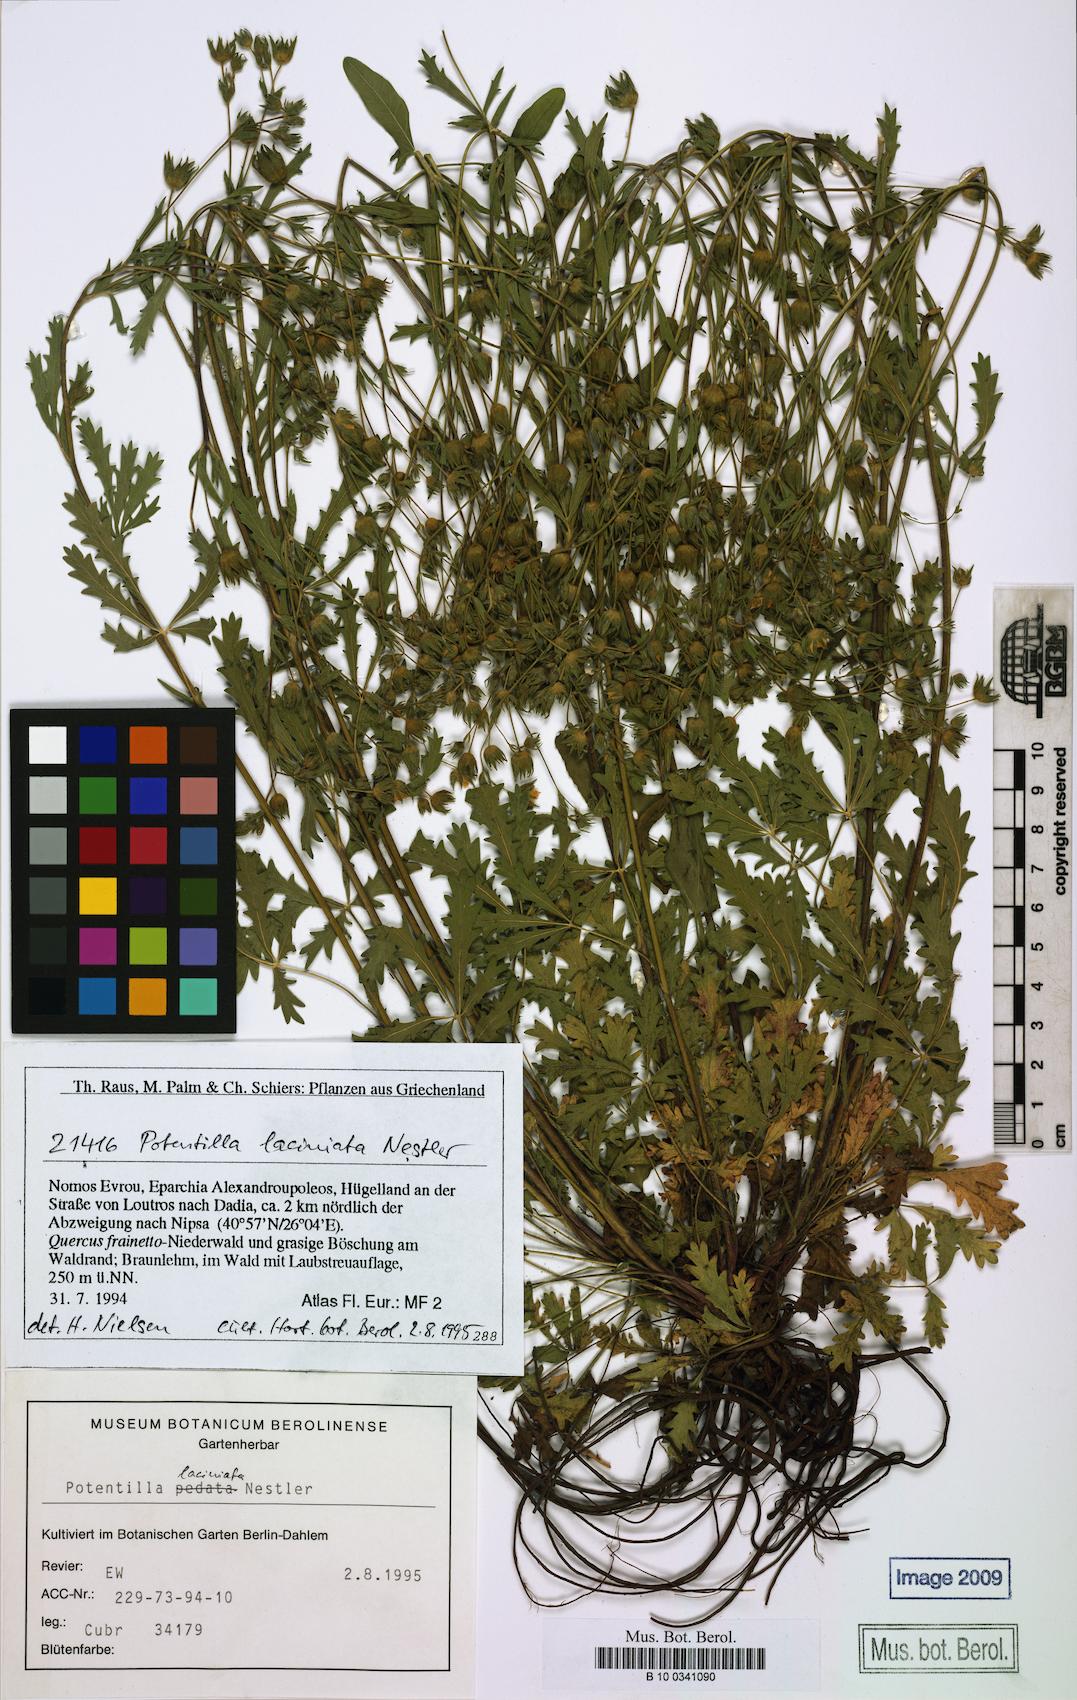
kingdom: Plantae
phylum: Tracheophyta
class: Magnoliopsida
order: Rosales
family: Rosaceae
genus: Potentilla
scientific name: Potentilla recta
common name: Sulphur cinquefoil
